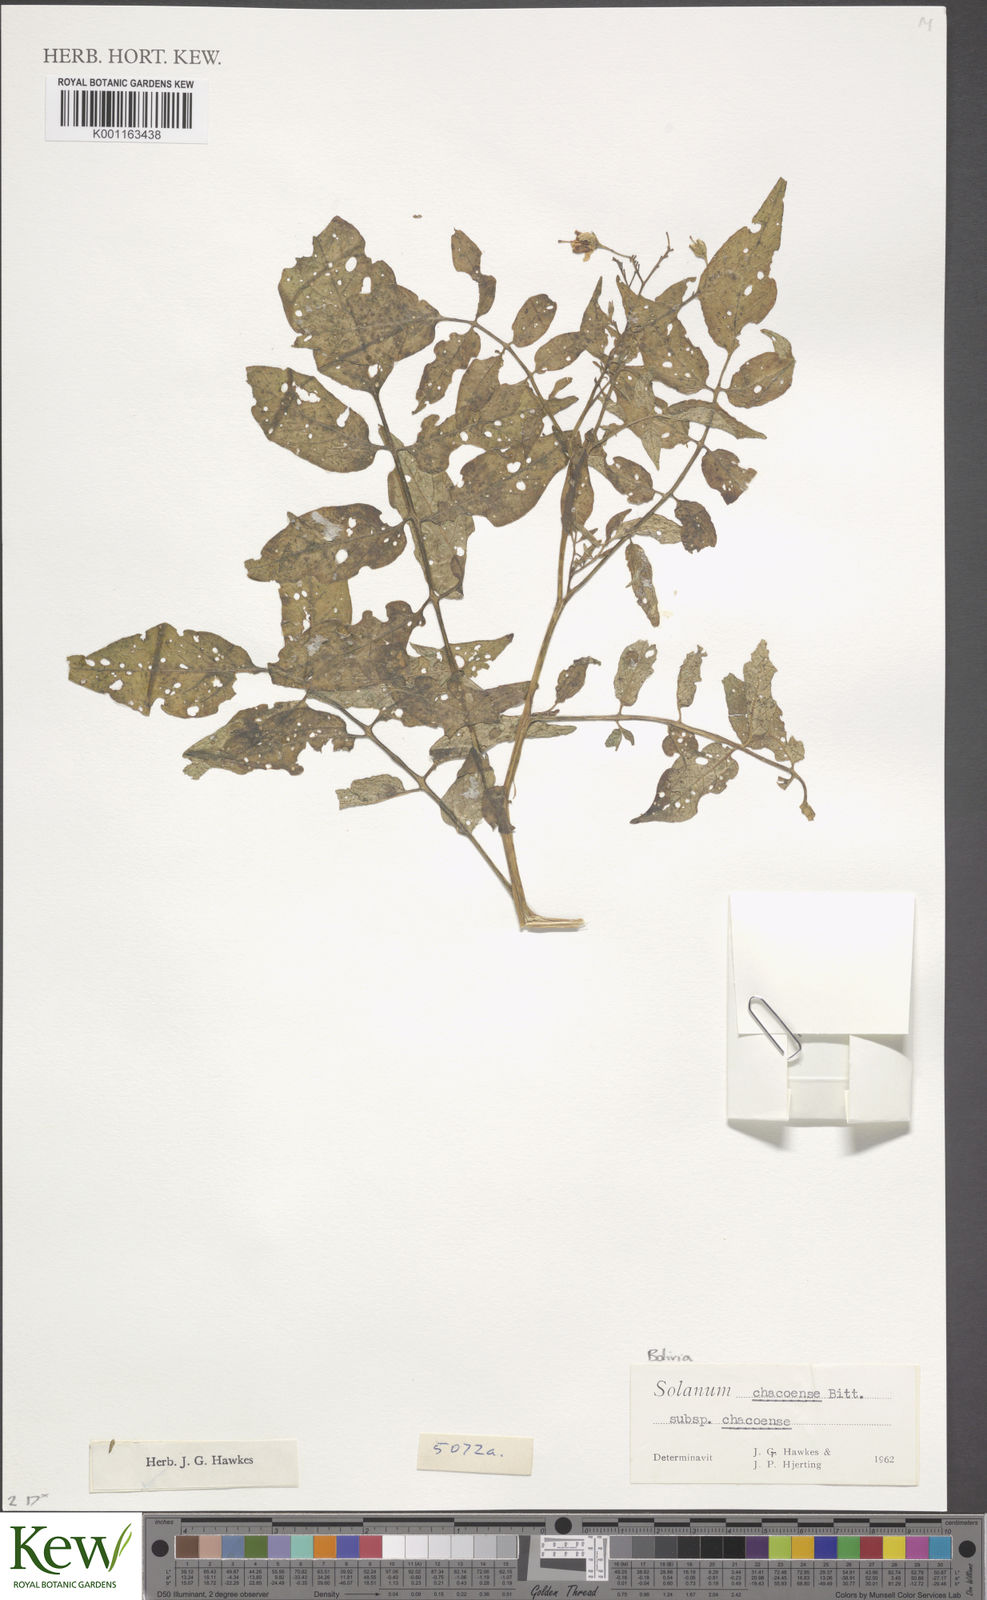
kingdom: Plantae
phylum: Tracheophyta
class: Magnoliopsida
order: Solanales
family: Solanaceae
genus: Solanum
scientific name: Solanum chacoense
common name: Chaco potato
